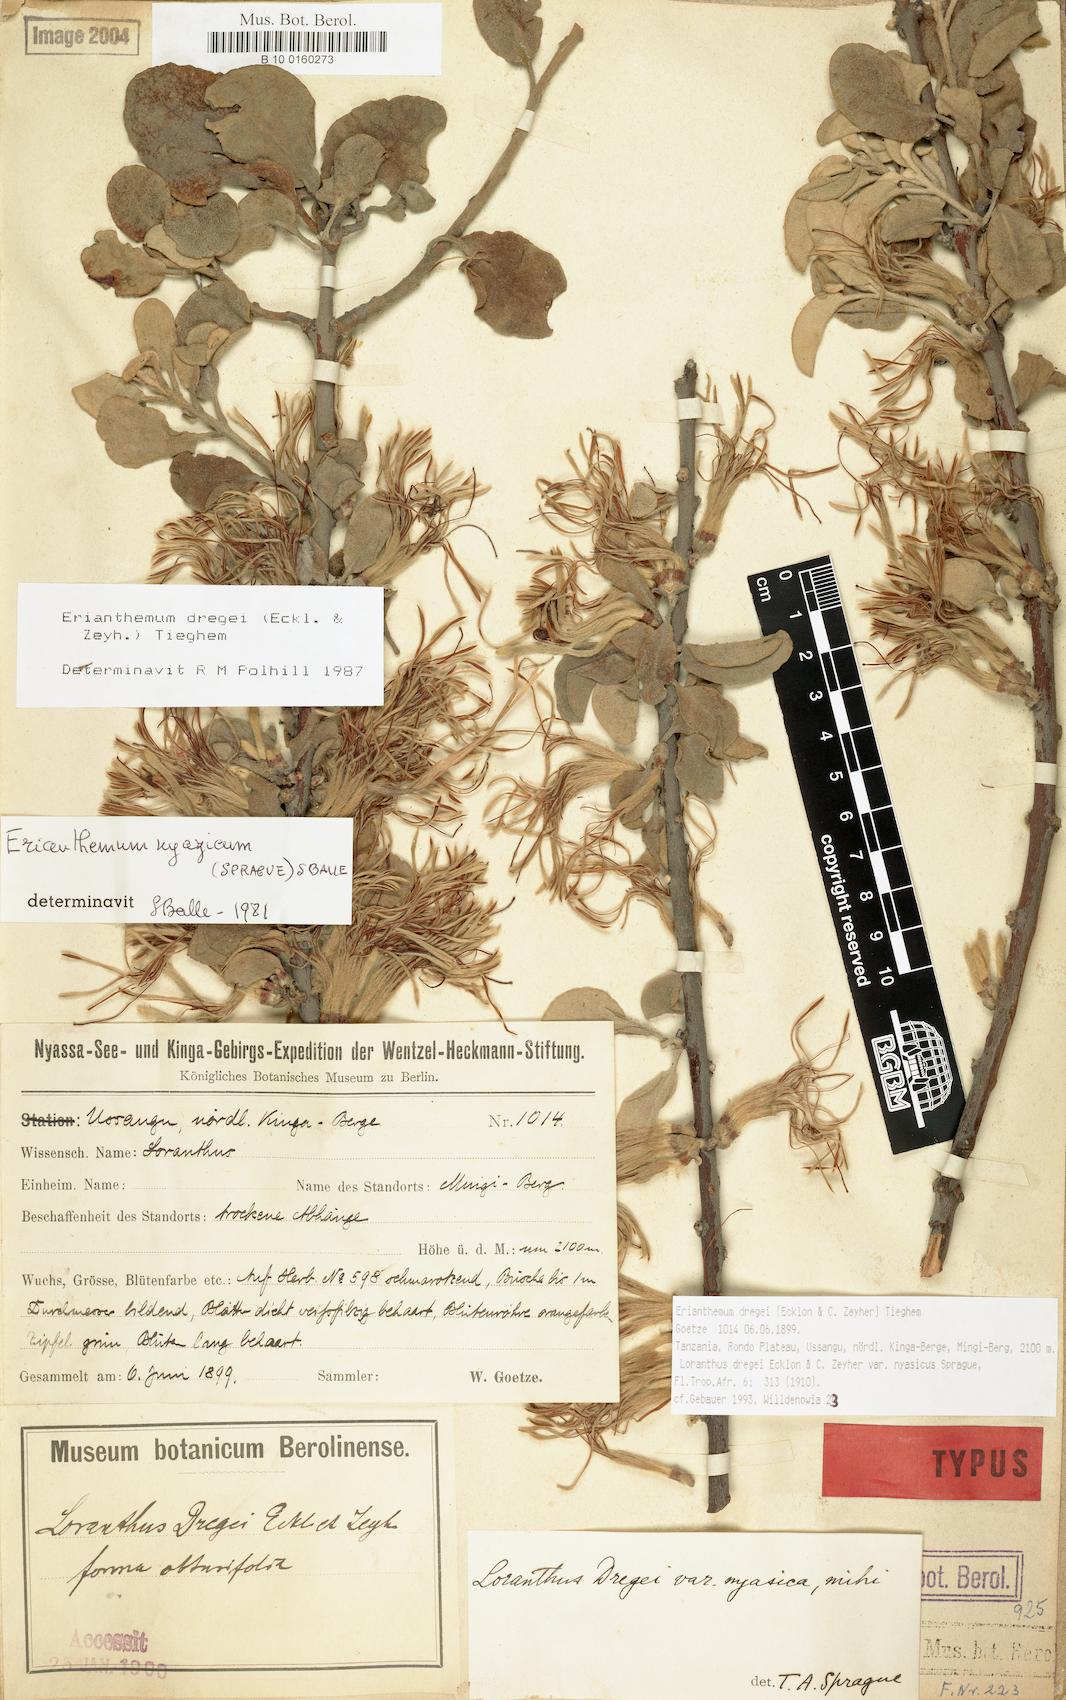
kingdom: Plantae
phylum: Tracheophyta
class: Magnoliopsida
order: Santalales
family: Loranthaceae
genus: Erianthemum
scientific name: Erianthemum dregei
